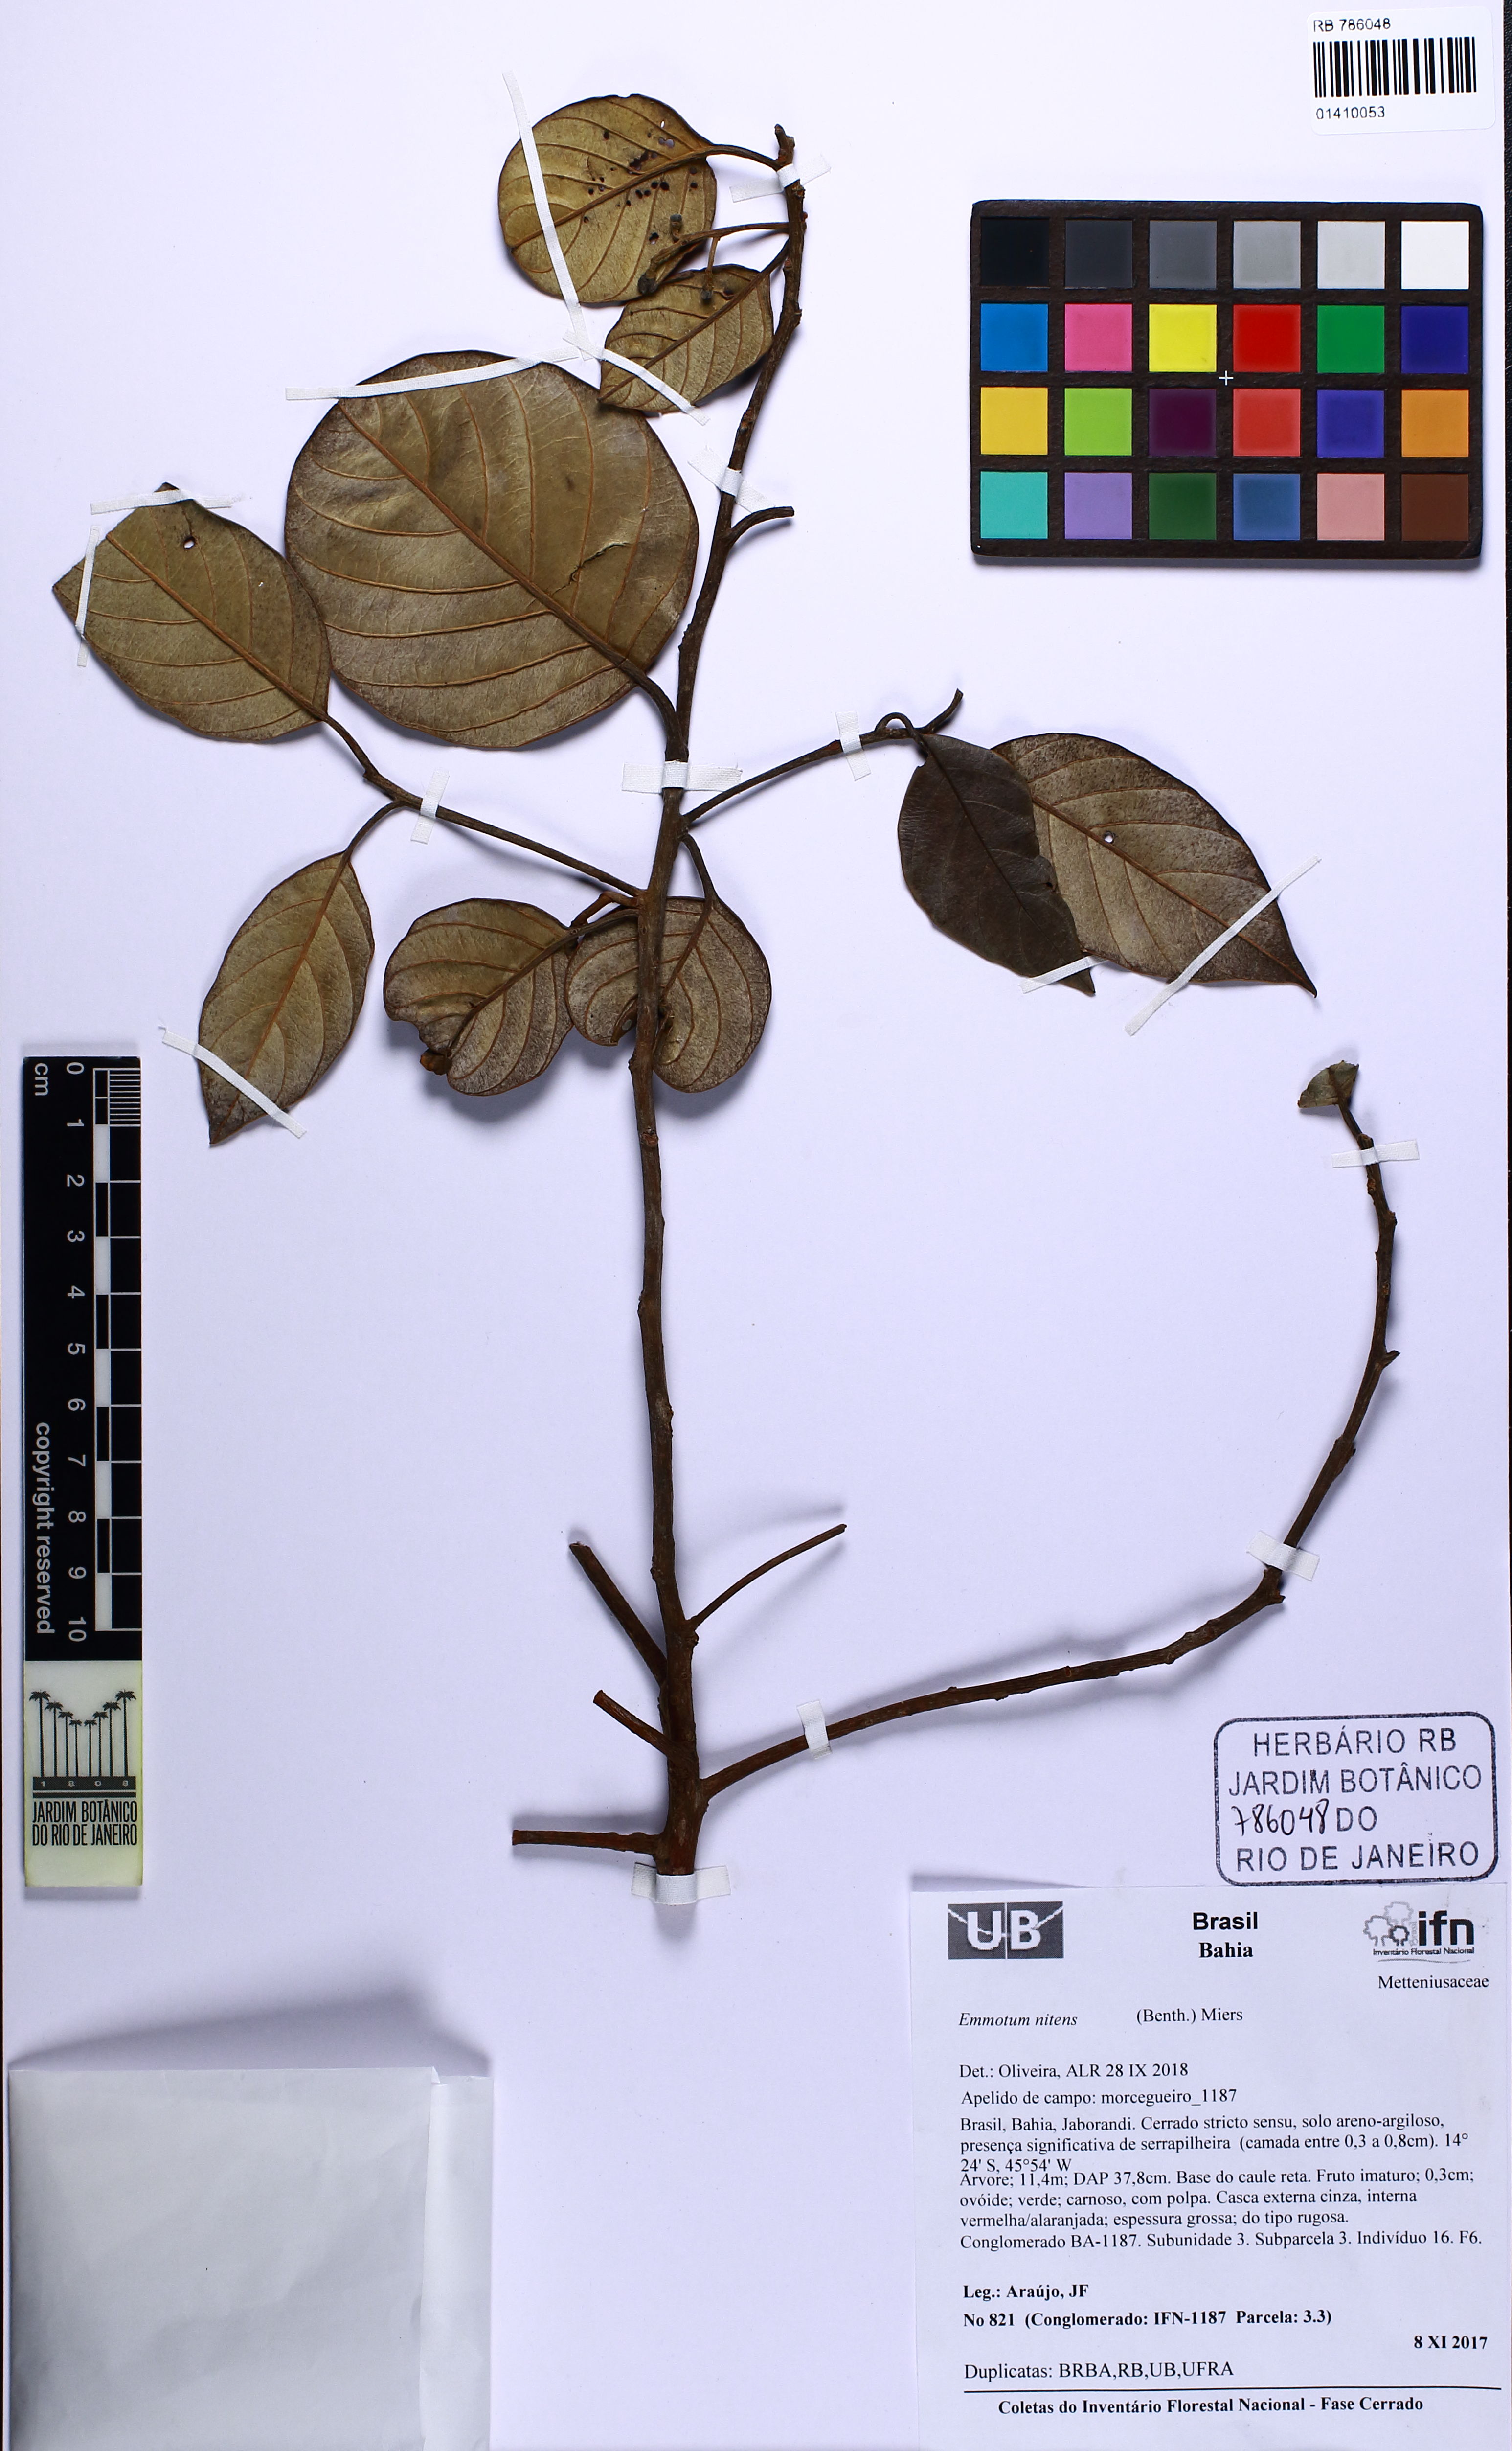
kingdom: Plantae
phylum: Tracheophyta
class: Magnoliopsida
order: Metteniusales
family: Metteniusaceae
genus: Emmotum
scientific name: Emmotum nitens
